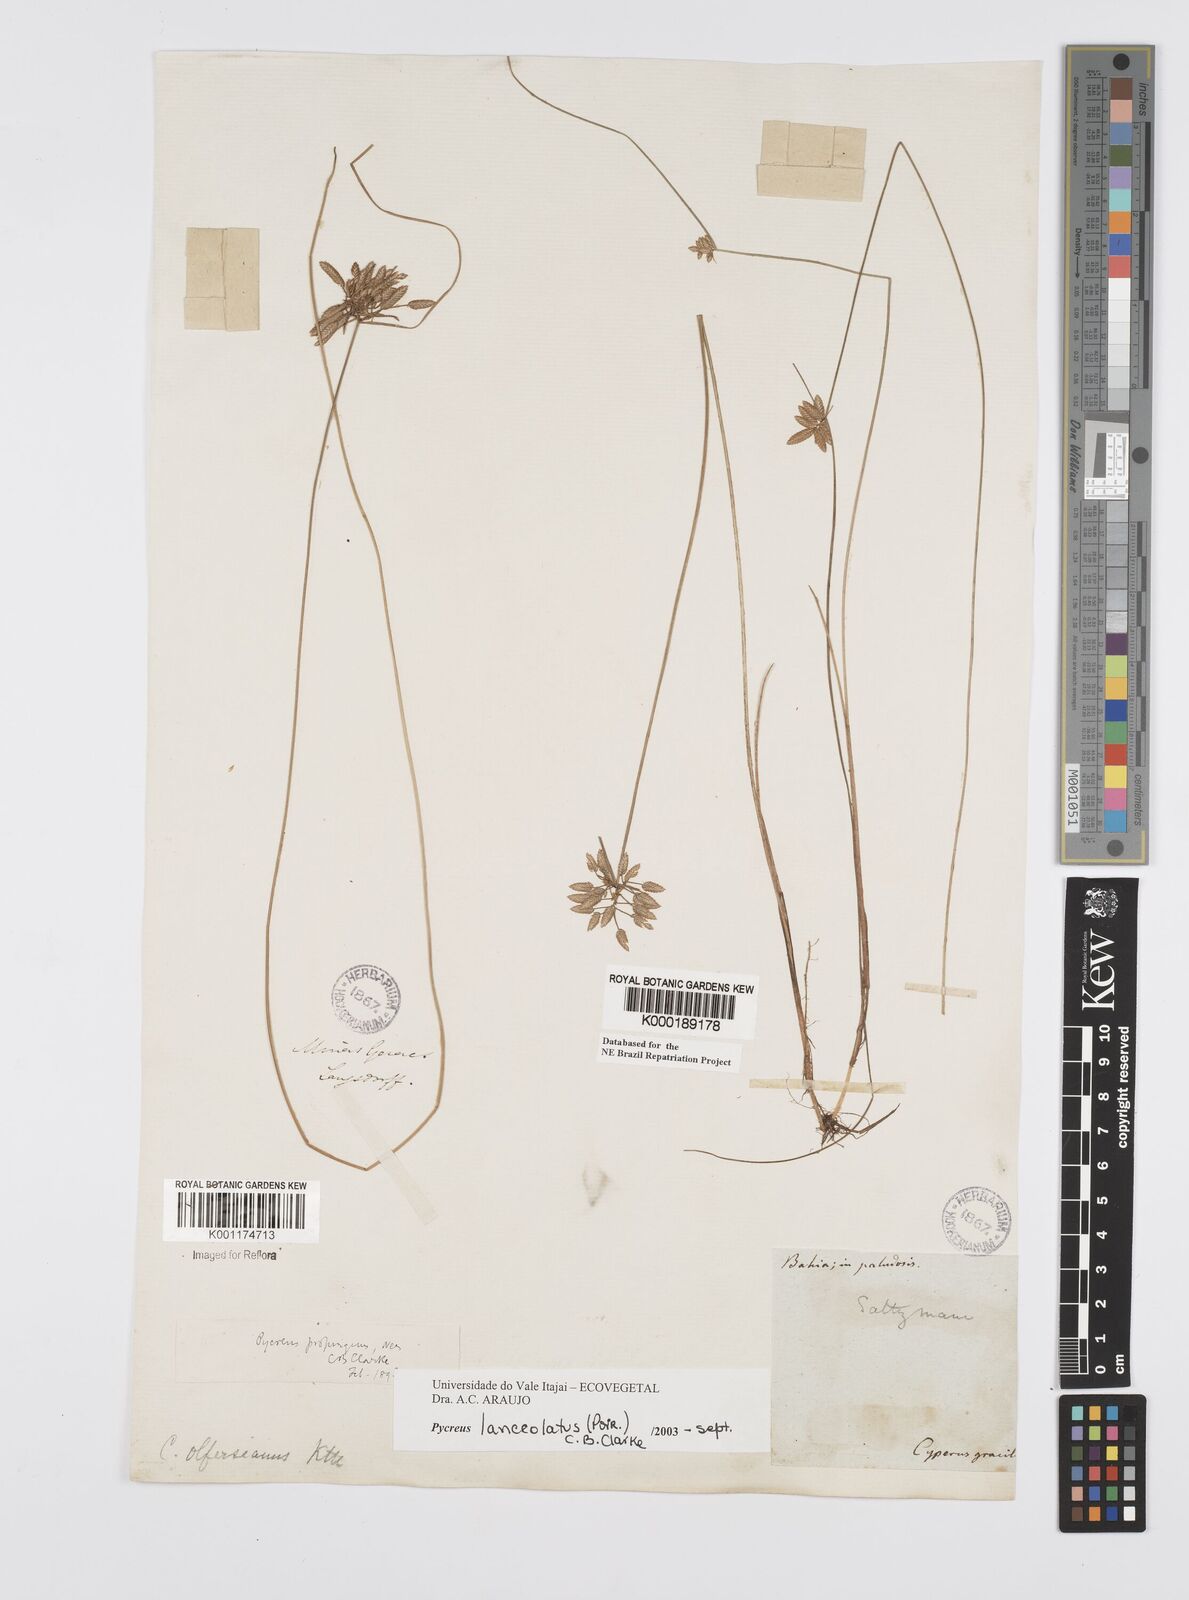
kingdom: Plantae
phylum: Tracheophyta
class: Liliopsida
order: Poales
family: Cyperaceae
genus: Cyperus
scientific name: Cyperus lanceolatus
